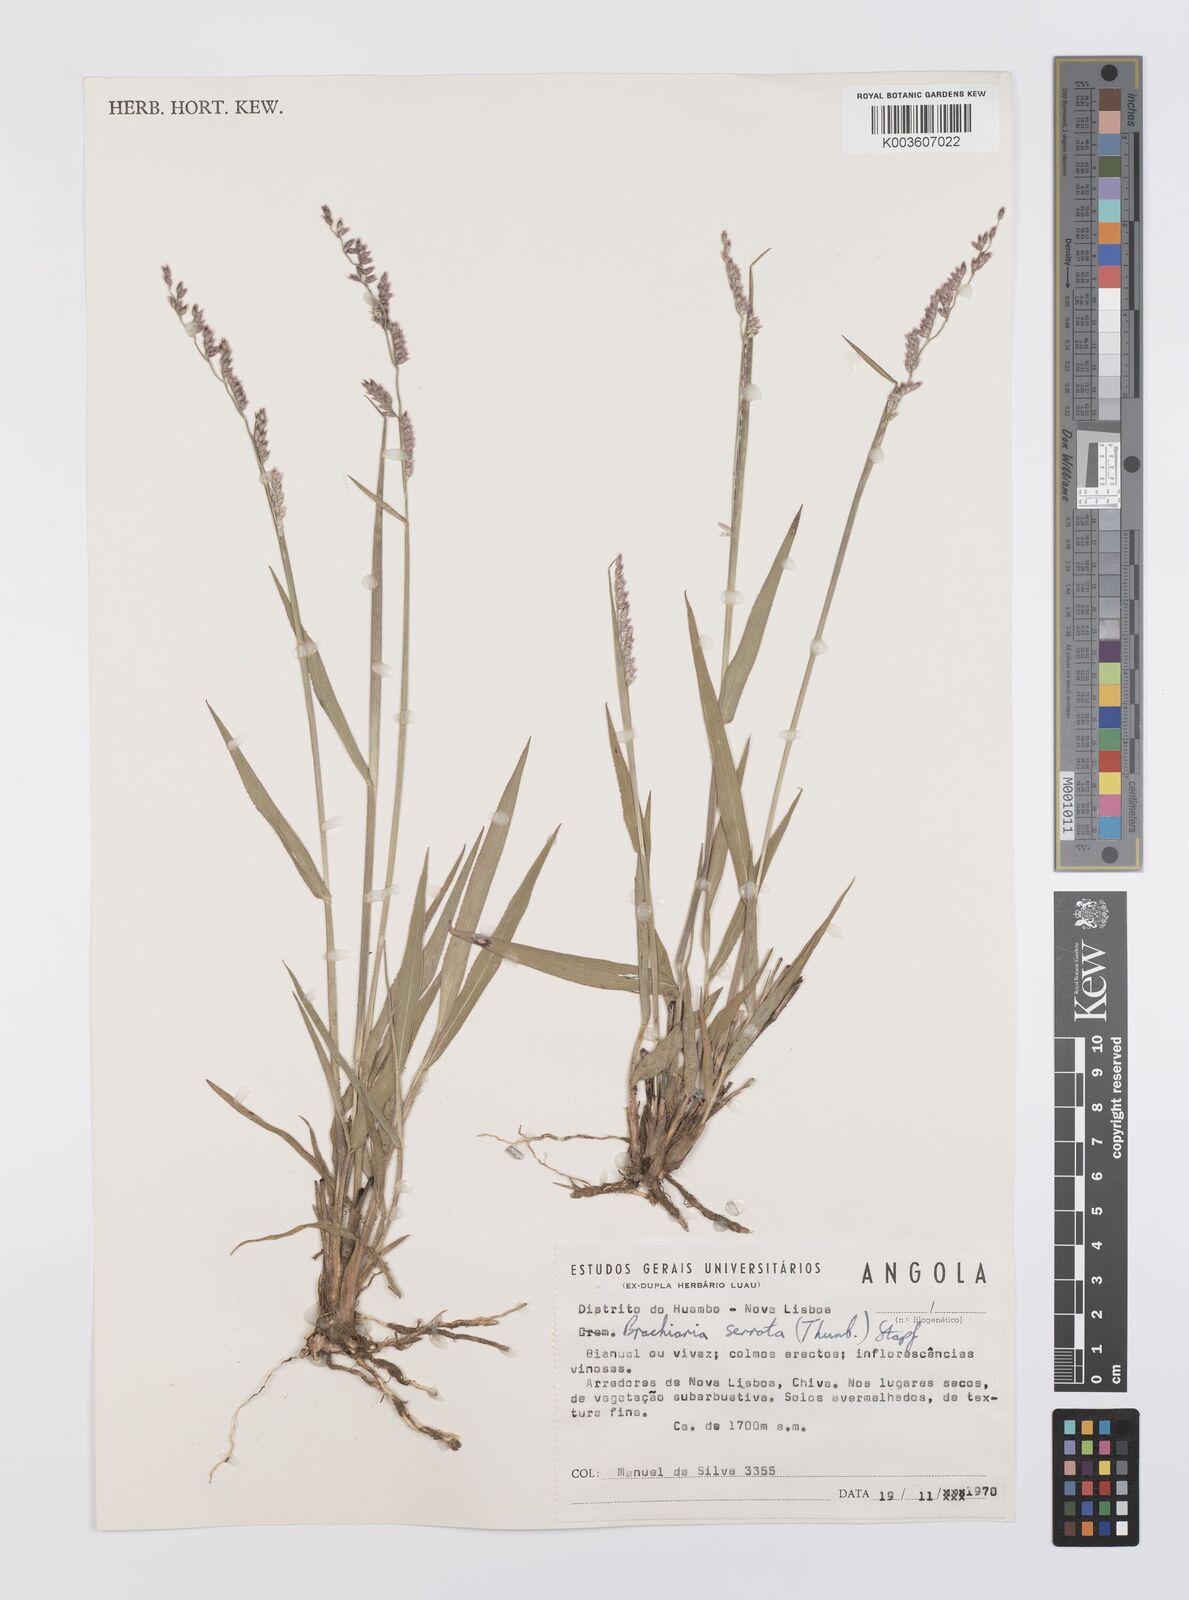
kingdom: Plantae
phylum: Tracheophyta
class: Liliopsida
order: Poales
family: Poaceae
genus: Urochloa
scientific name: Urochloa serrata
